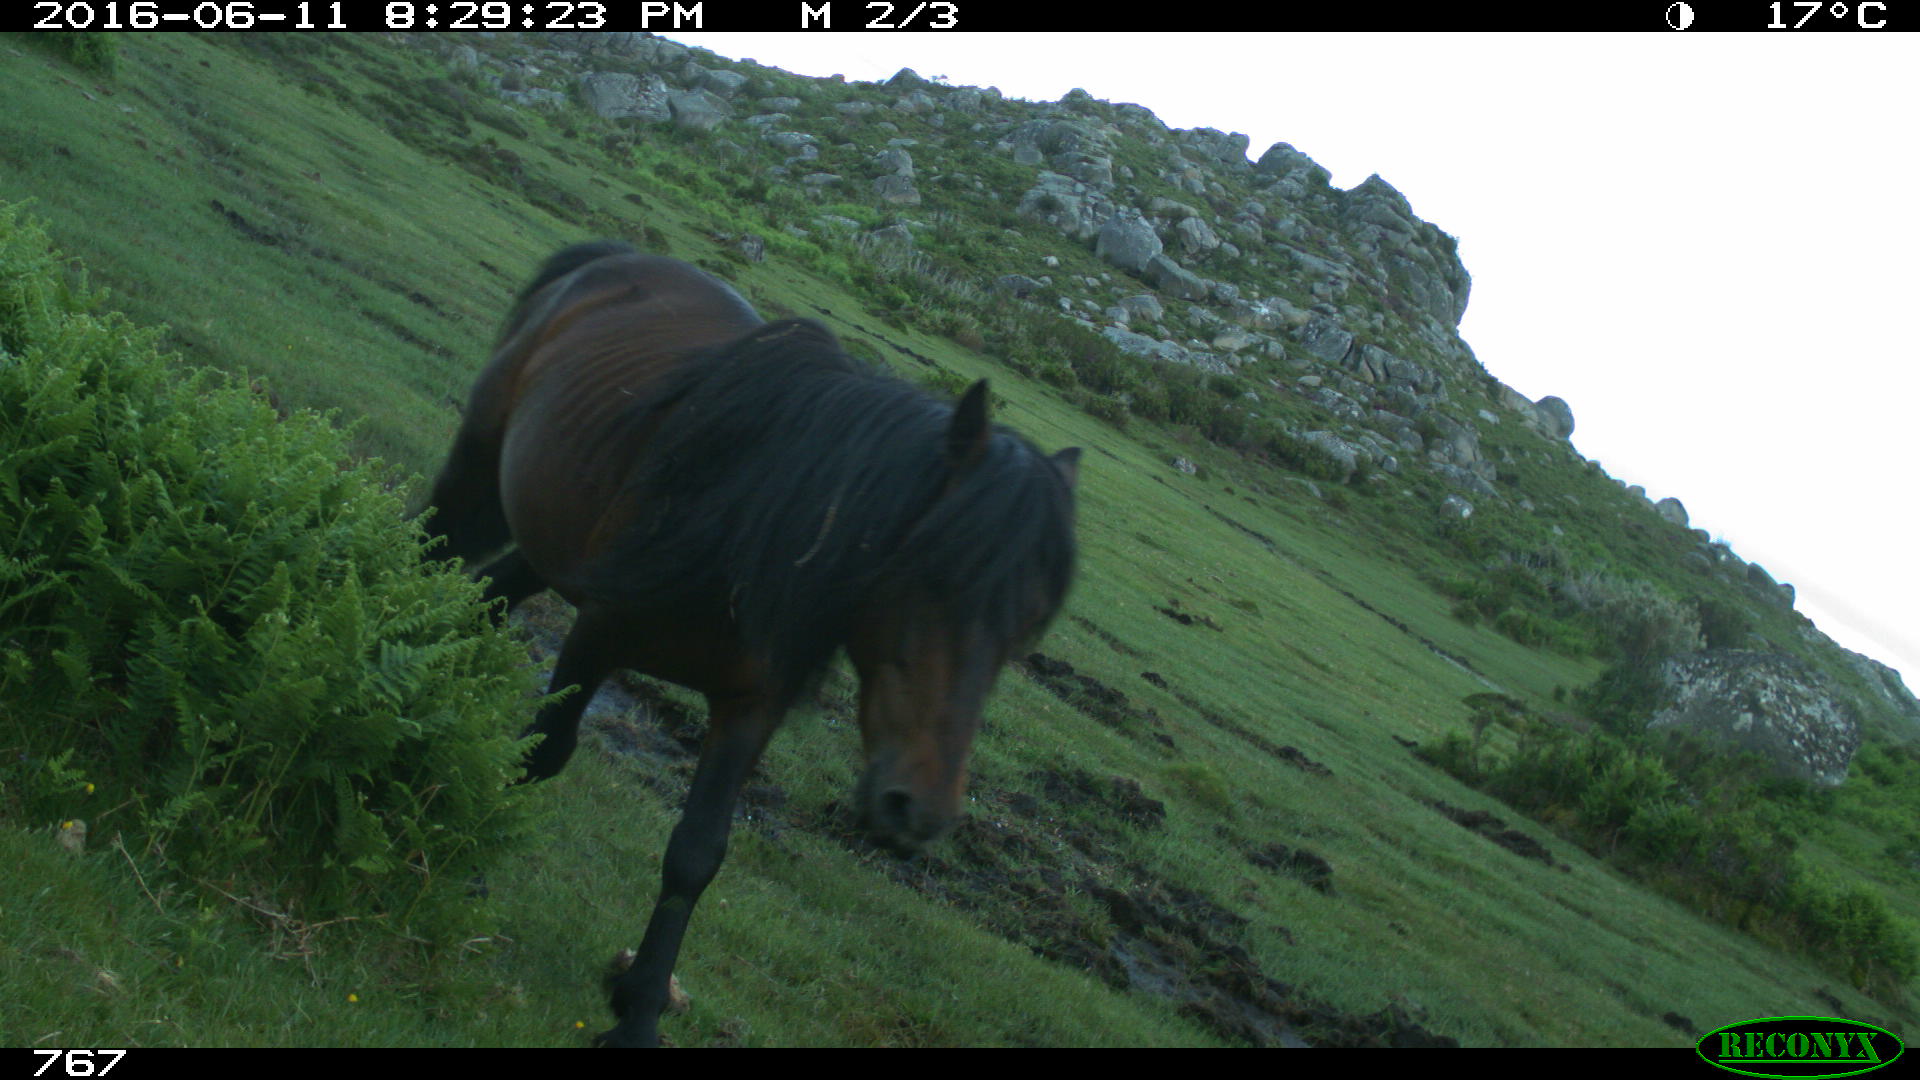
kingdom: Animalia
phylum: Chordata
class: Mammalia
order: Perissodactyla
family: Equidae
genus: Equus
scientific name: Equus caballus
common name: Horse
